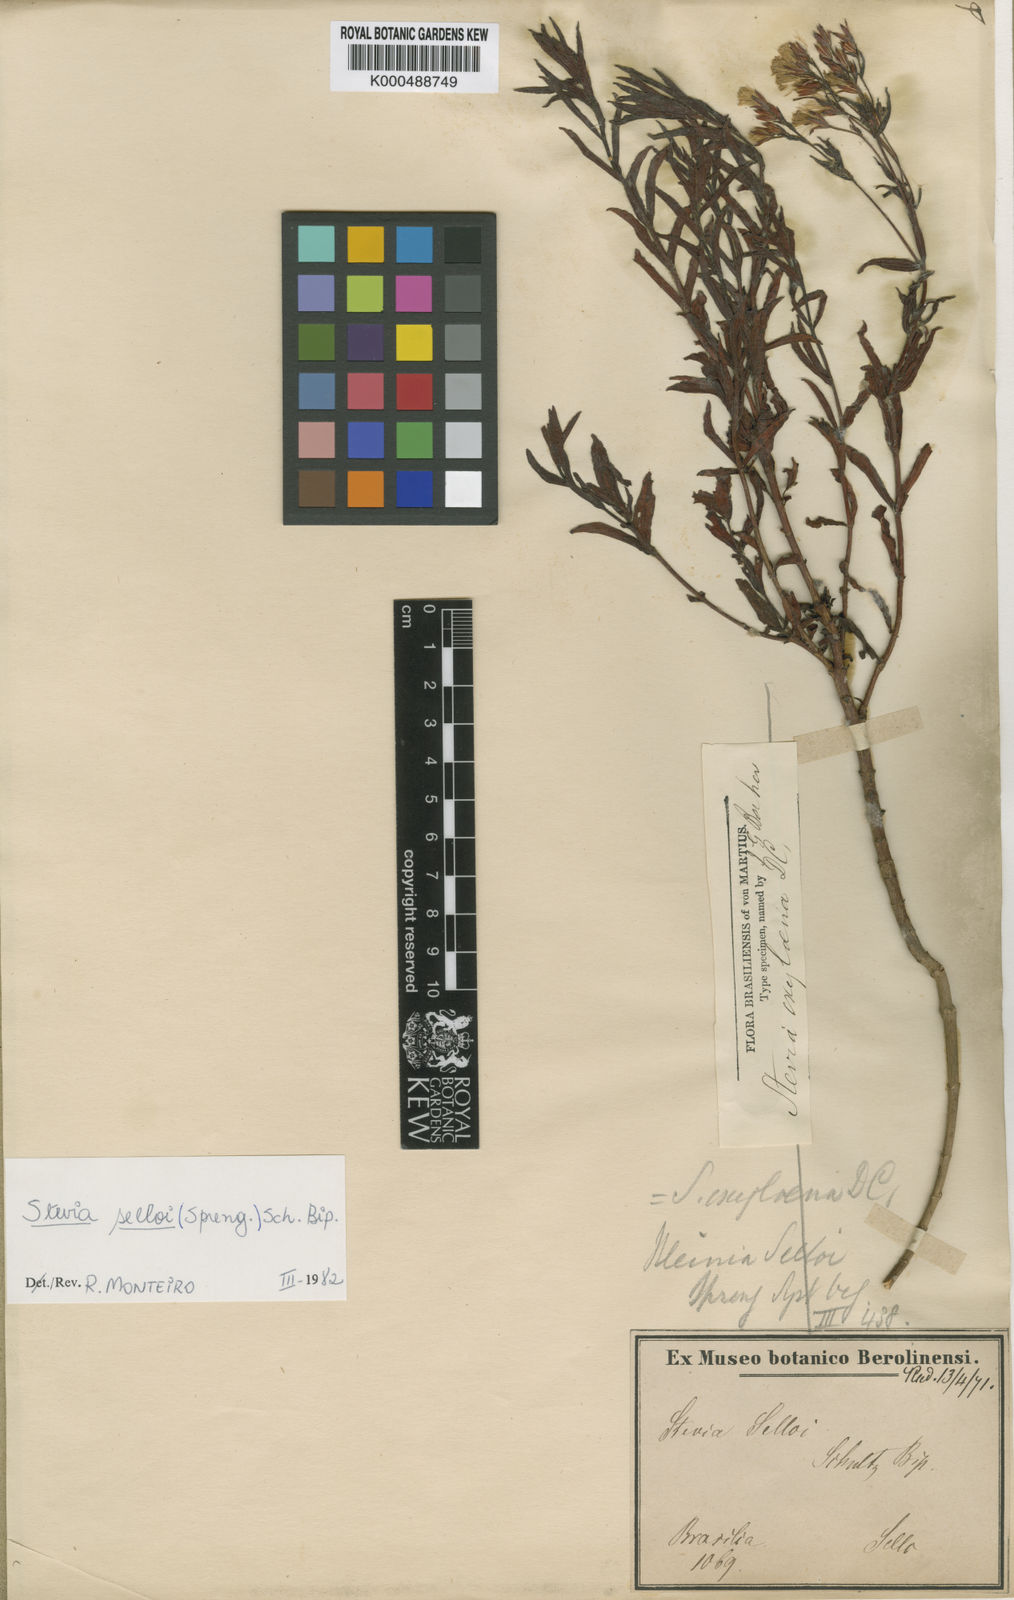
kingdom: Plantae
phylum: Tracheophyta
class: Magnoliopsida
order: Asterales
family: Asteraceae
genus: Stevia
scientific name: Stevia selloi
